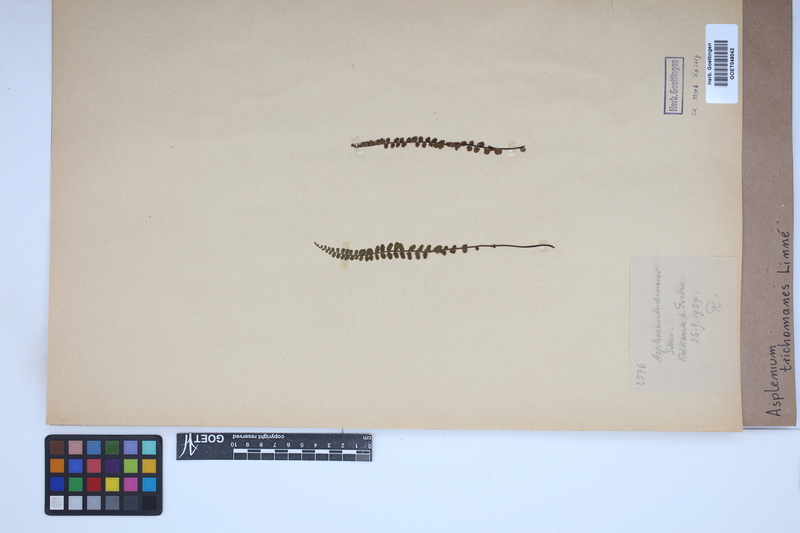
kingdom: Plantae
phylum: Tracheophyta
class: Polypodiopsida
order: Polypodiales
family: Aspleniaceae
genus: Asplenium
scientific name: Asplenium trichomanes
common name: Maidenhair spleenwort
